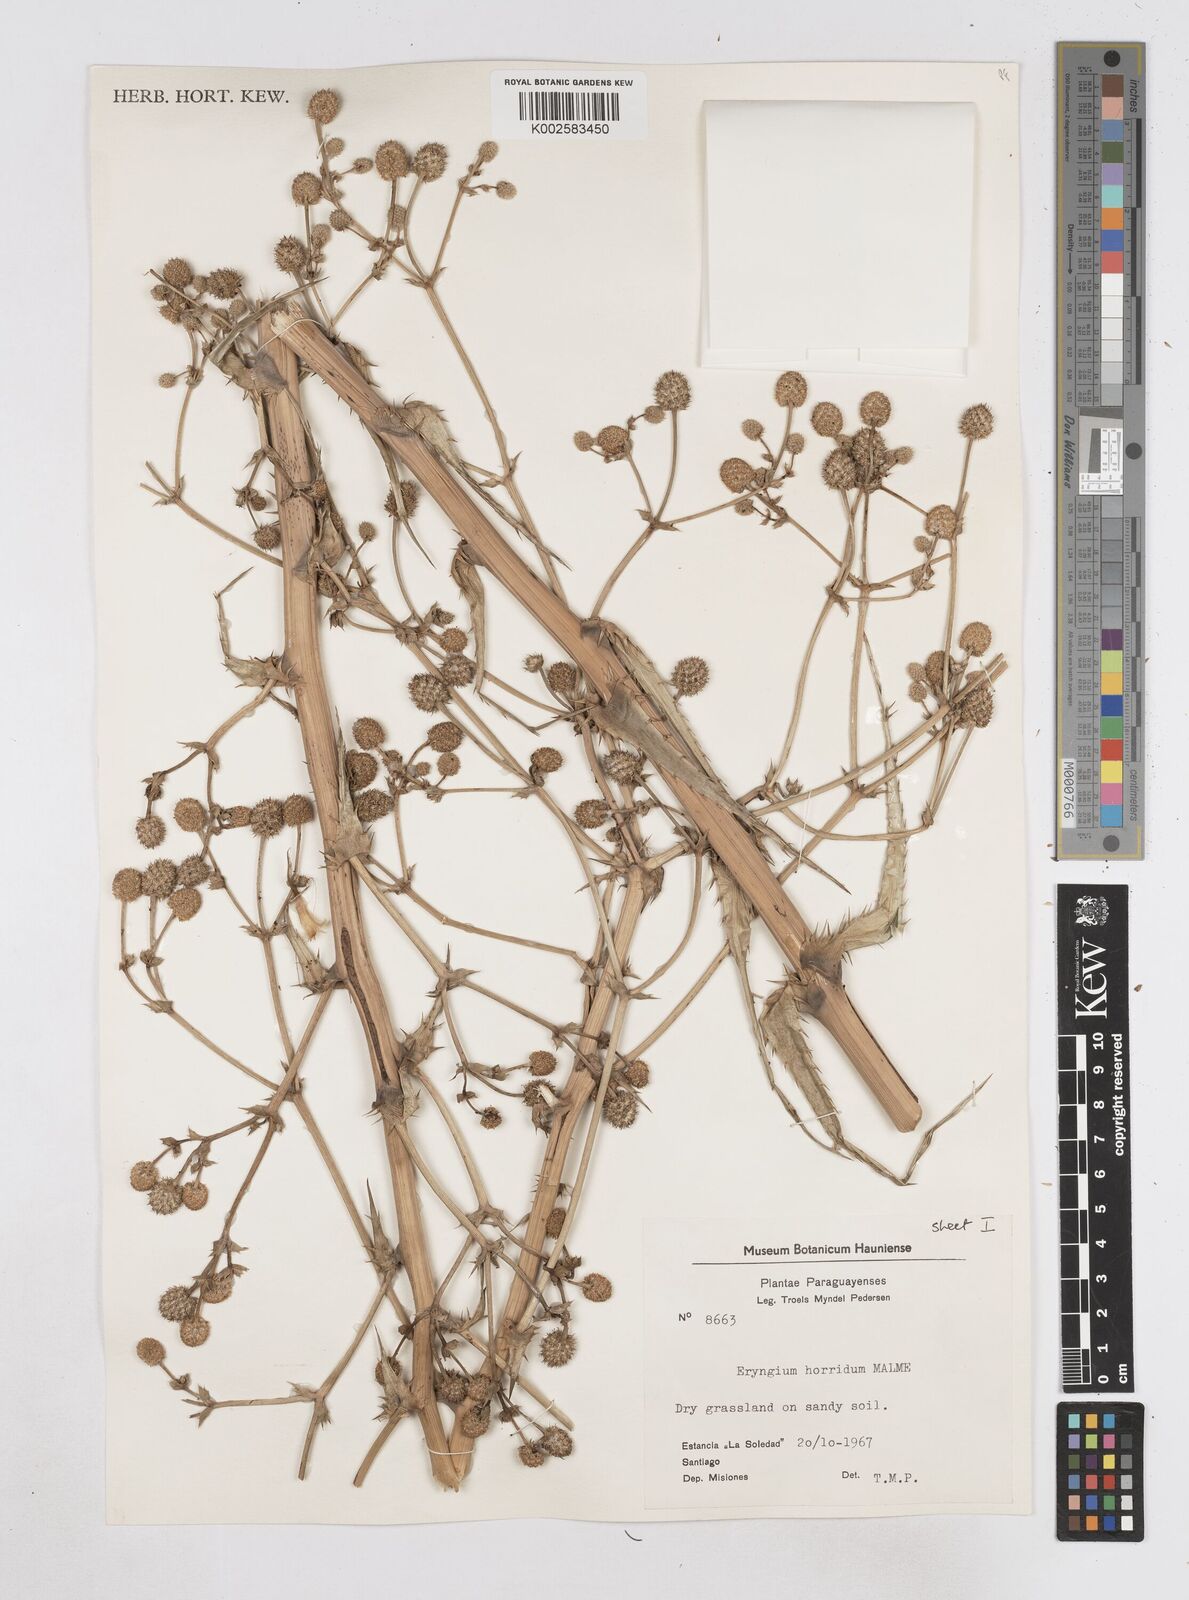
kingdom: Plantae
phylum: Tracheophyta
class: Magnoliopsida
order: Apiales
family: Apiaceae
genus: Eryngium
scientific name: Eryngium horridum
